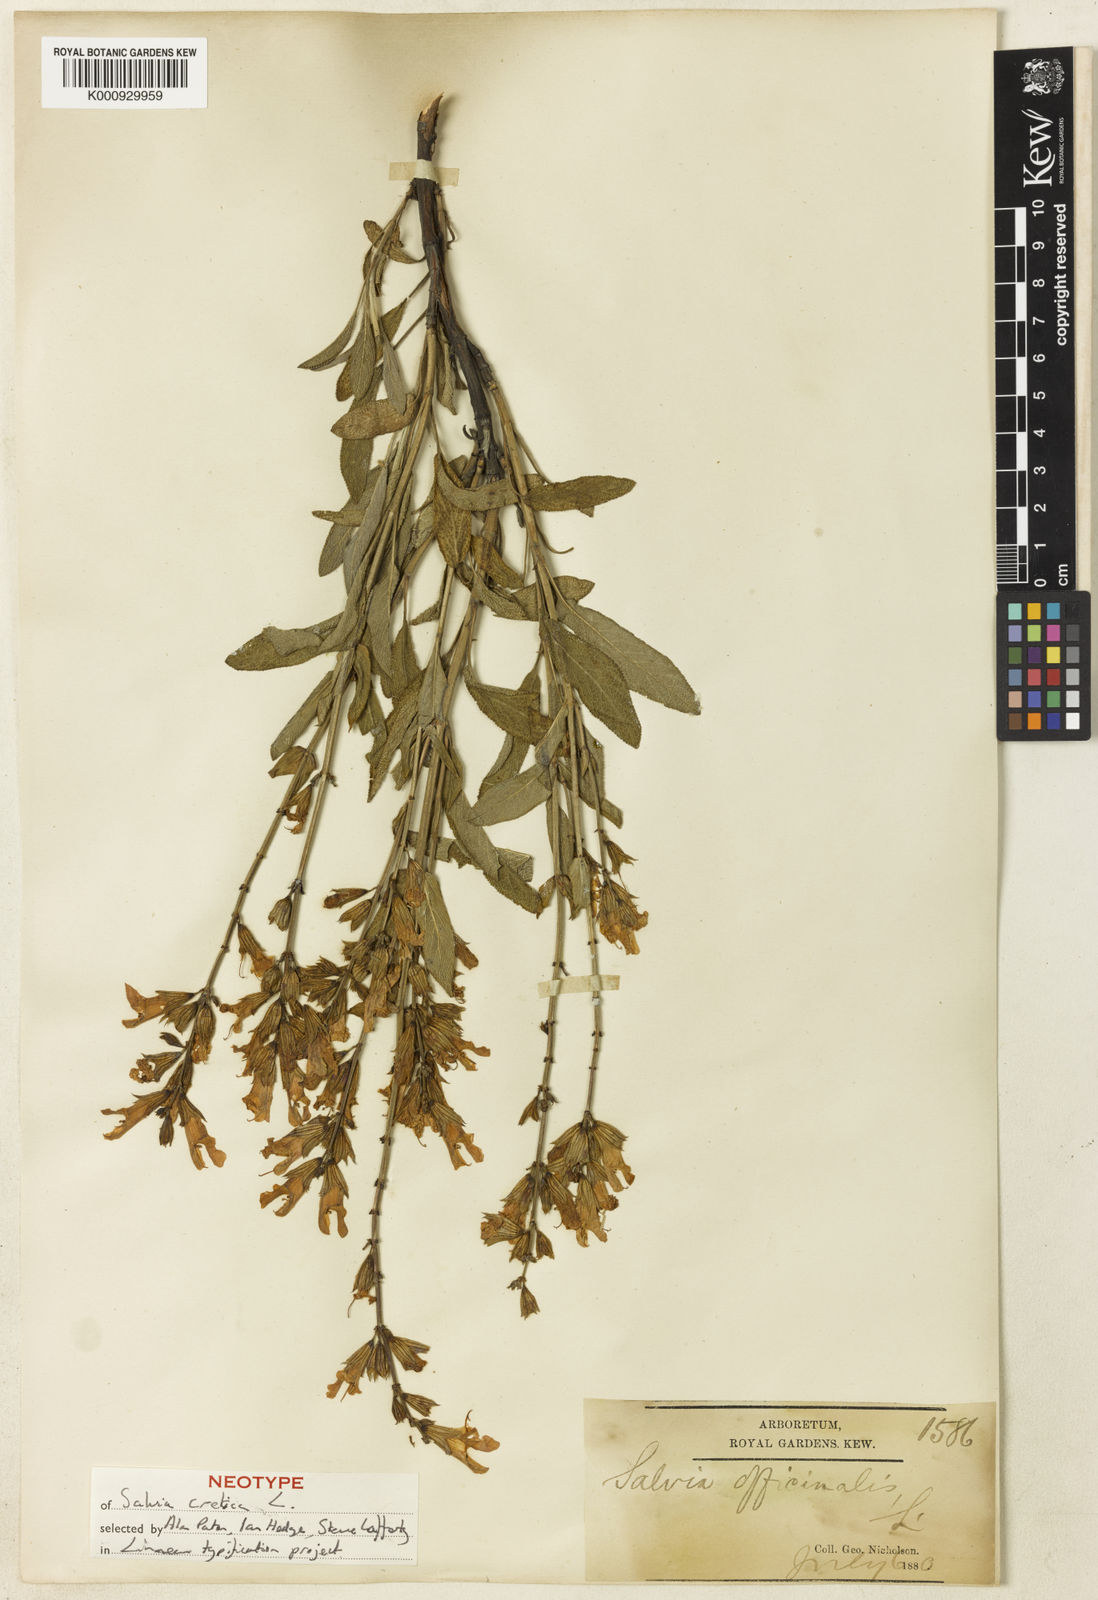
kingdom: Plantae
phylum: Tracheophyta
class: Magnoliopsida
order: Lamiales
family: Lamiaceae
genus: Salvia
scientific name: Salvia officinalis
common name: Sage
